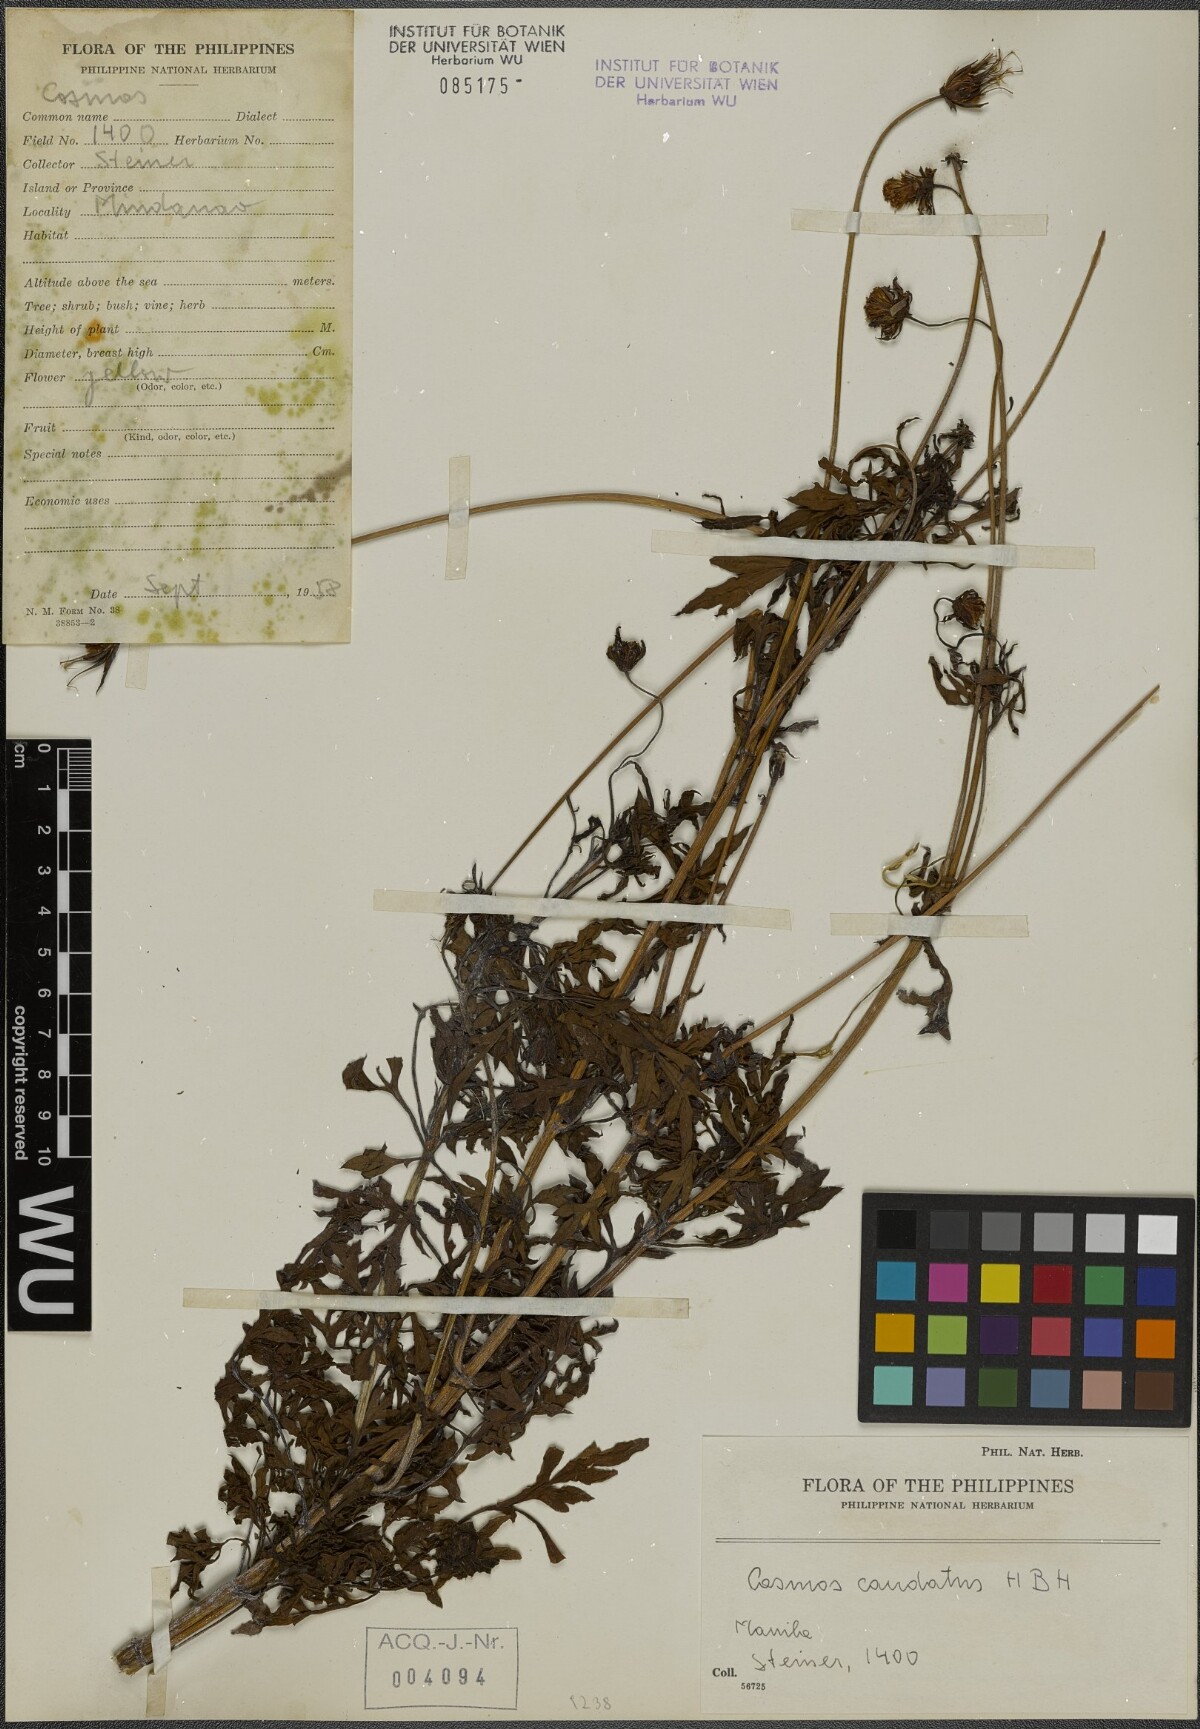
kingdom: Plantae
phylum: Tracheophyta
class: Magnoliopsida
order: Asterales
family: Asteraceae
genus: Cosmos
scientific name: Cosmos caudatus
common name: Wild cosmos
